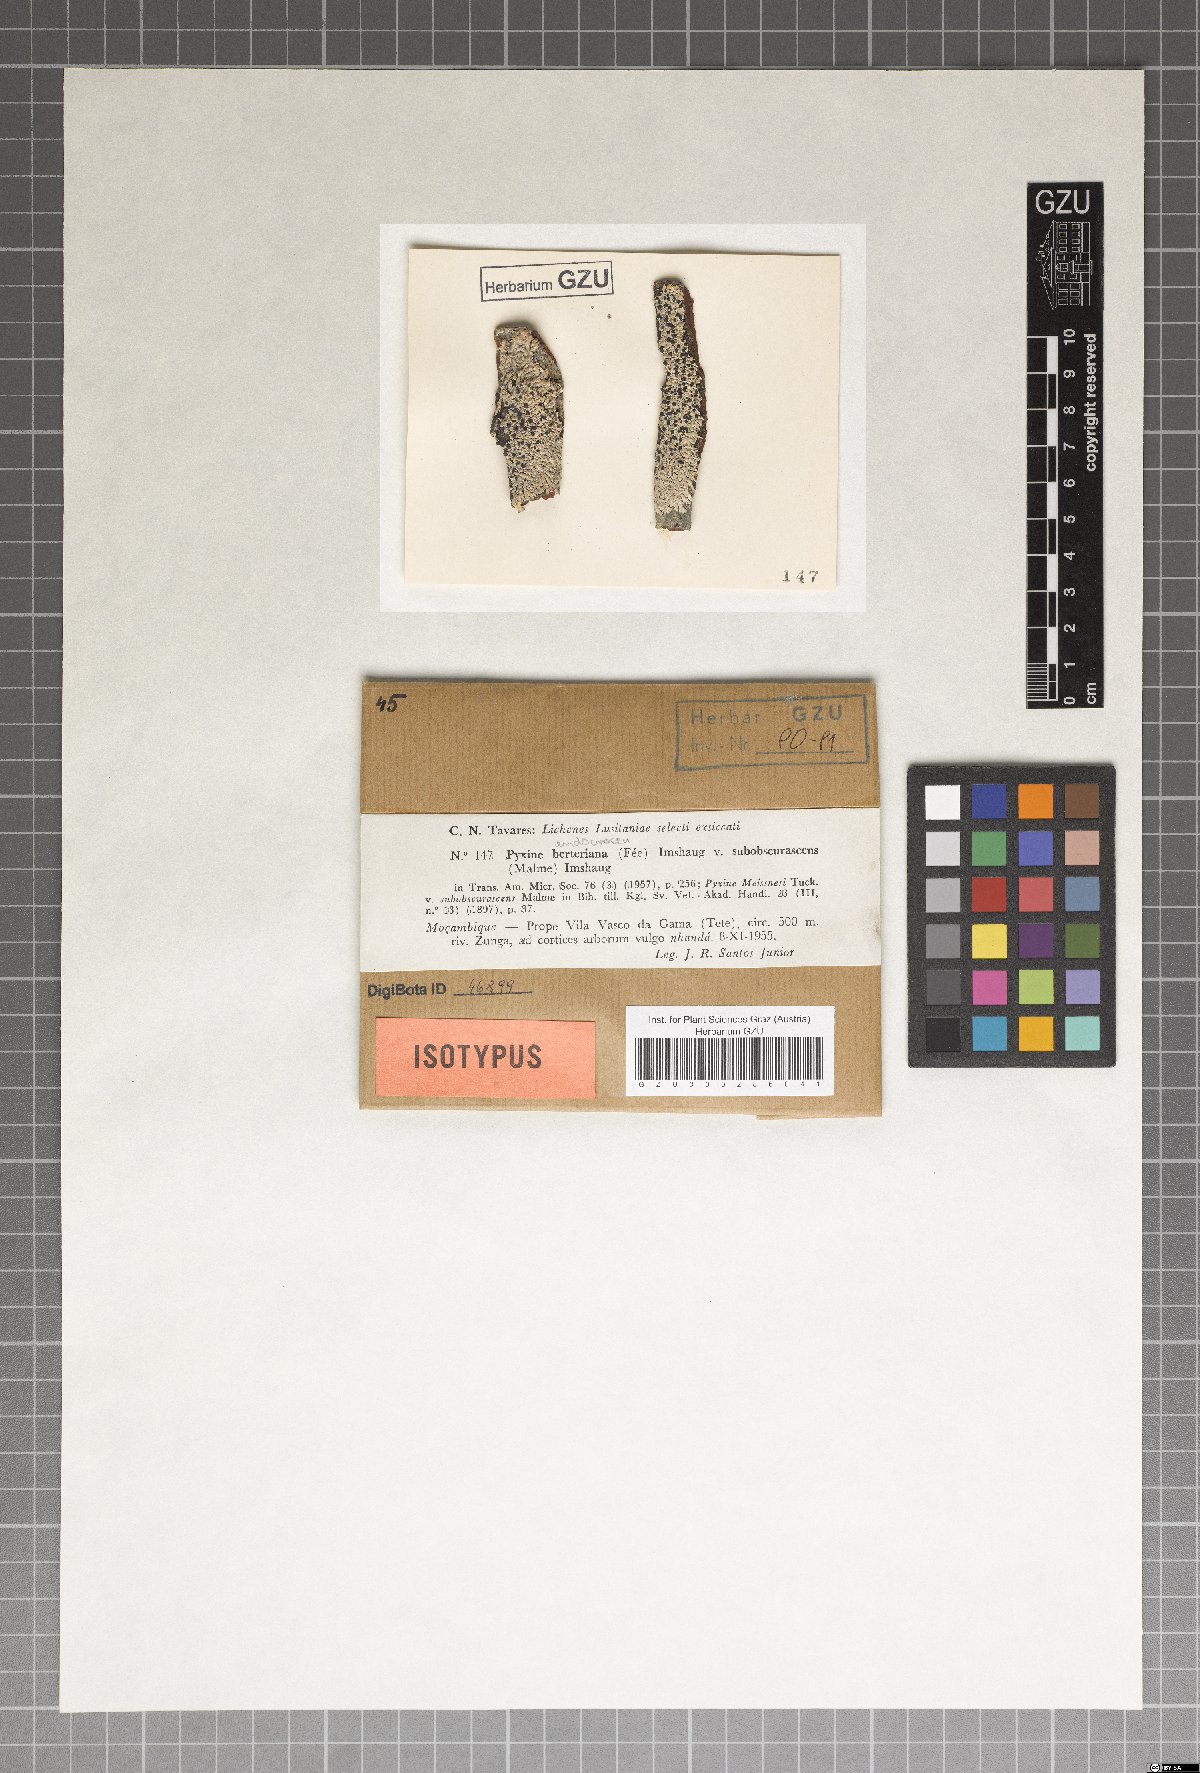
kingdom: Fungi
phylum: Ascomycota
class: Lecanoromycetes
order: Caliciales
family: Caliciaceae
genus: Pyxine
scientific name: Pyxine endocrocea
